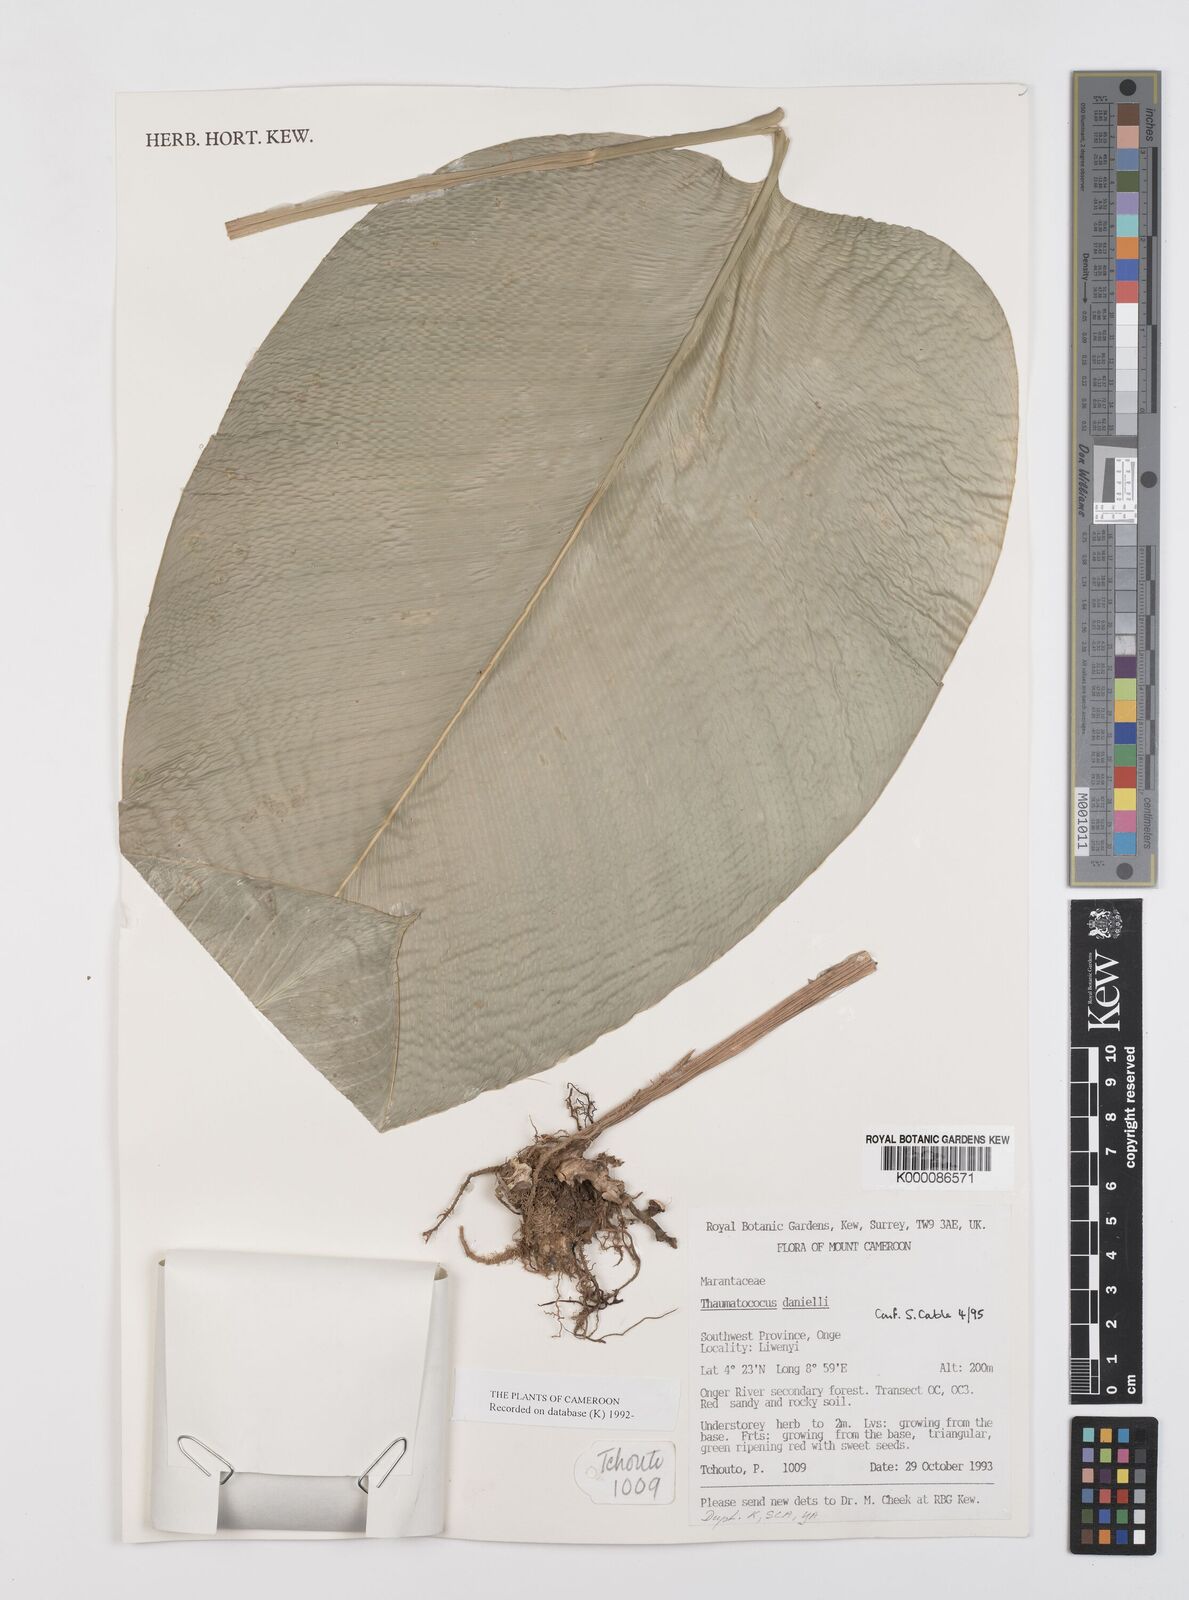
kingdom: Plantae
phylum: Tracheophyta
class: Liliopsida
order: Zingiberales
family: Marantaceae
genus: Thaumatococcus
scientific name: Thaumatococcus
